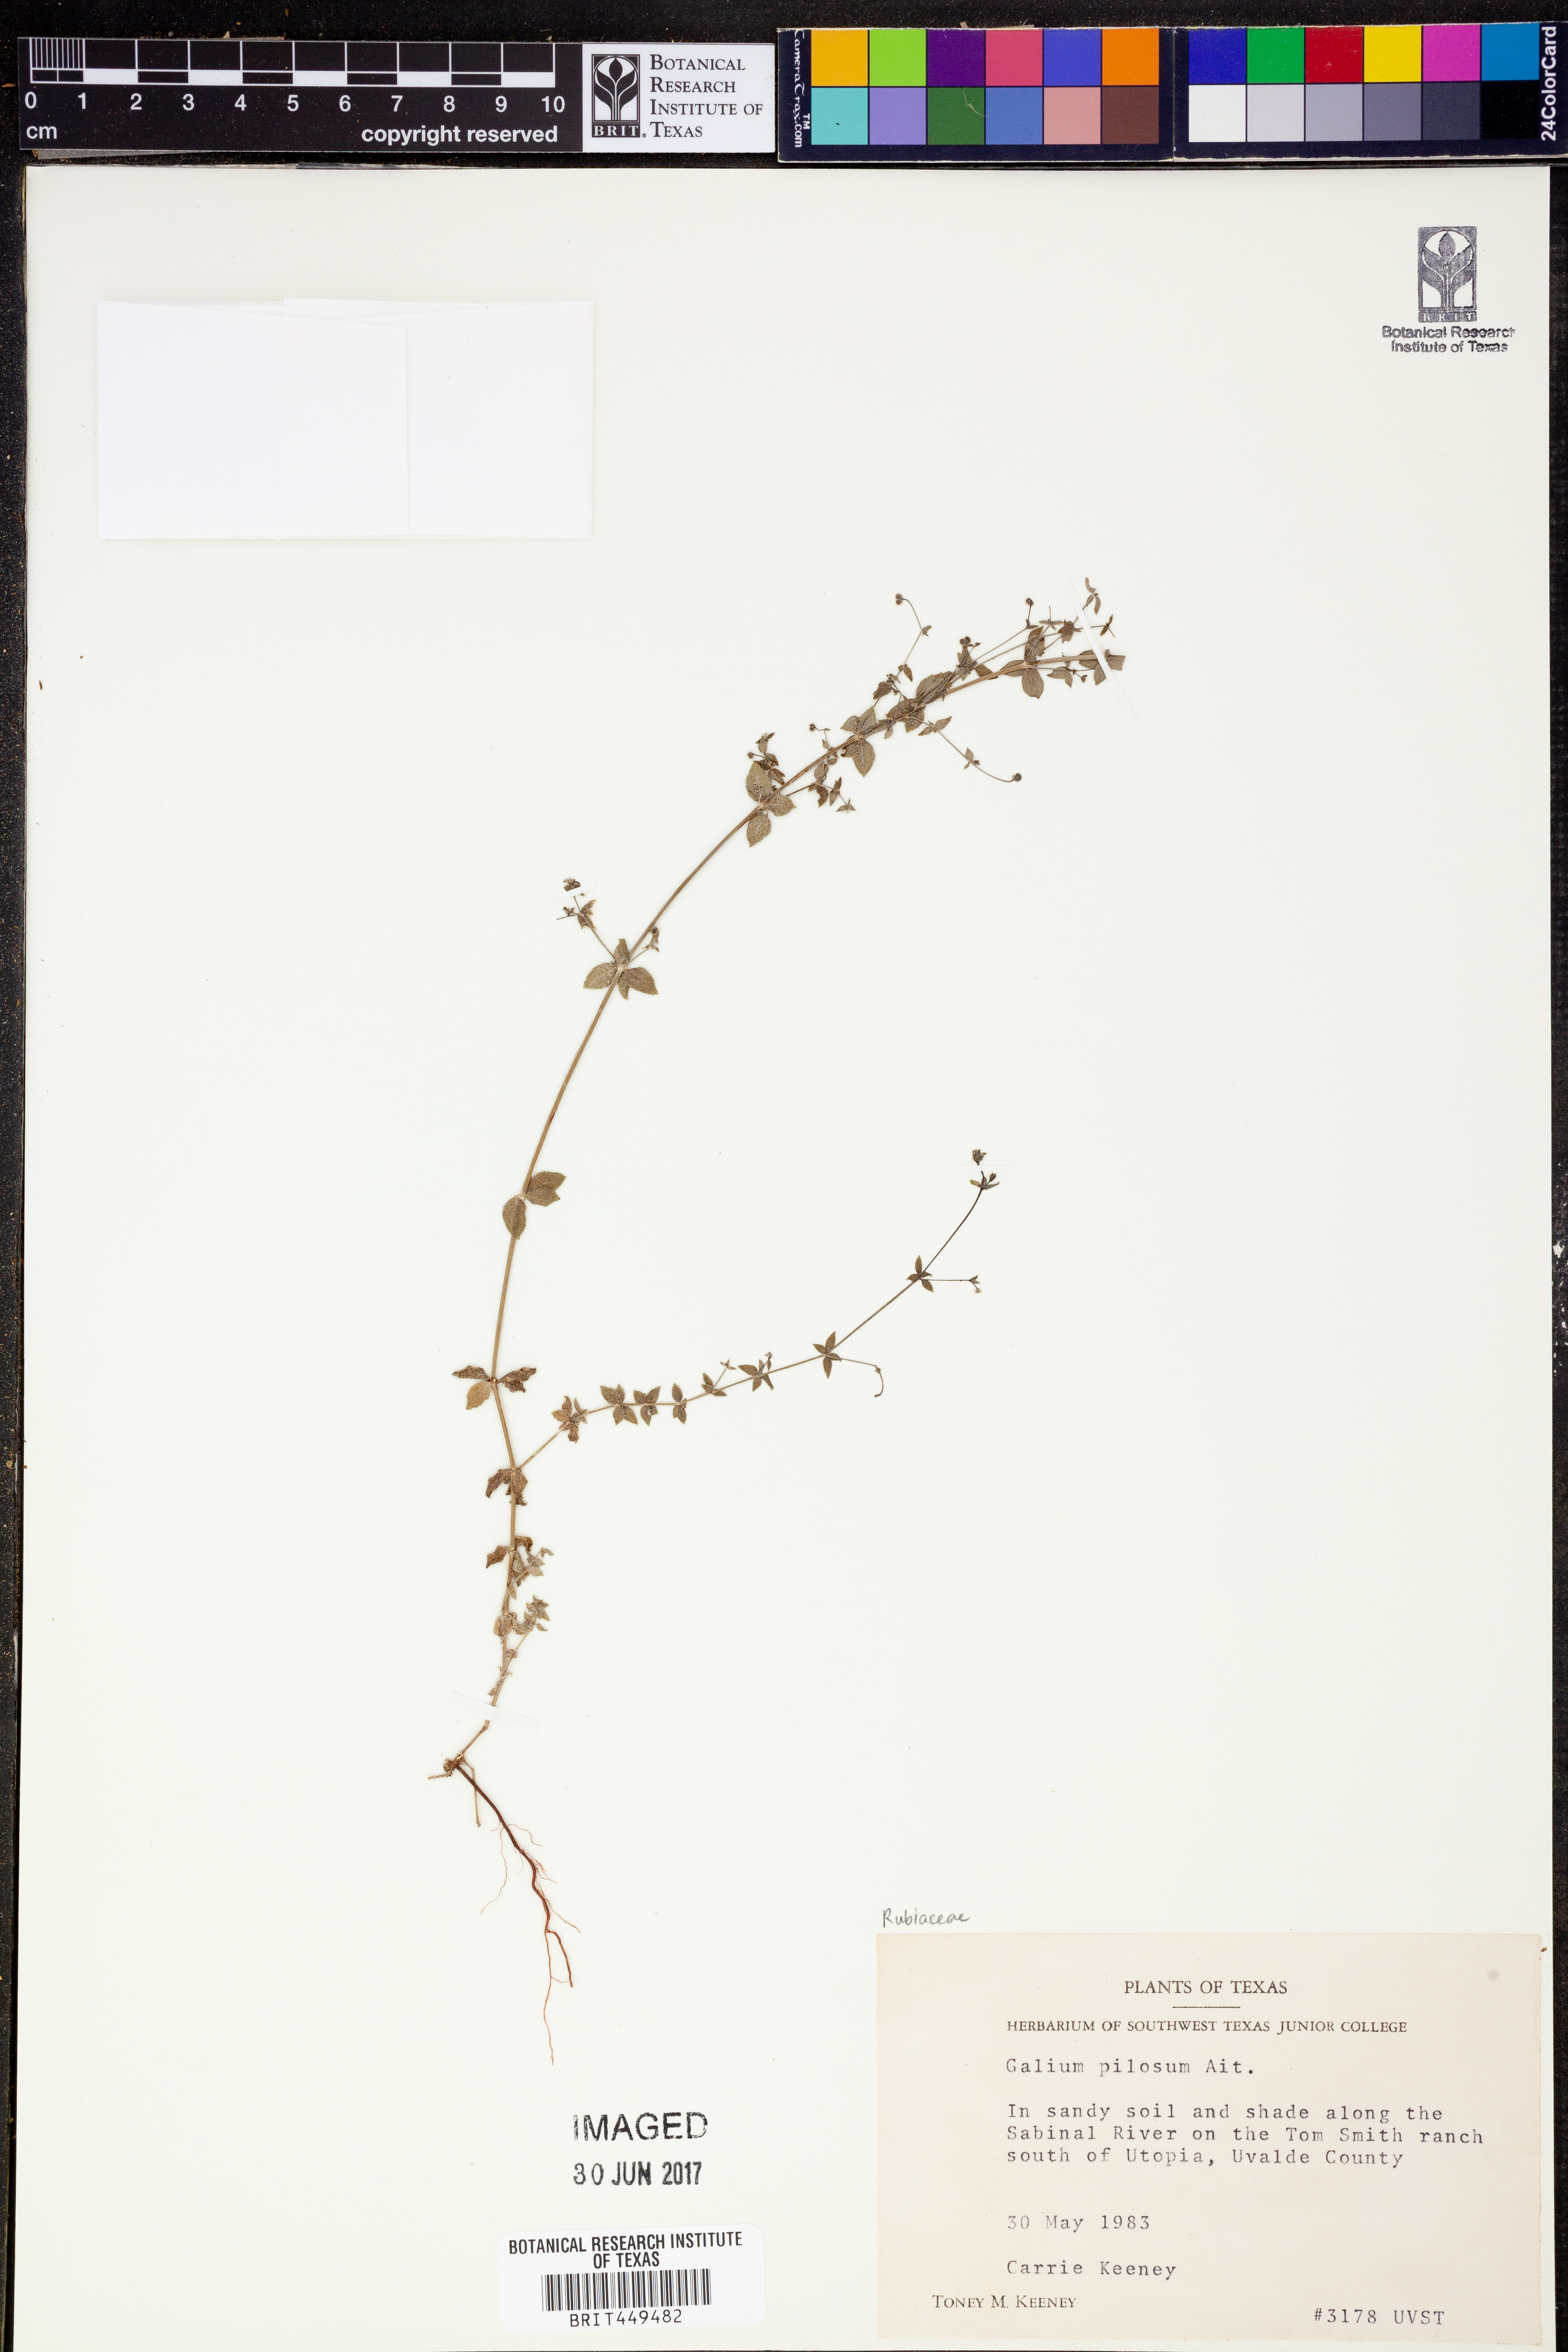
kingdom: Plantae
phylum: Tracheophyta
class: Magnoliopsida
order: Gentianales
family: Rubiaceae
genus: Galium
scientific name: Galium pilosum
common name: Hairy bedstraw
